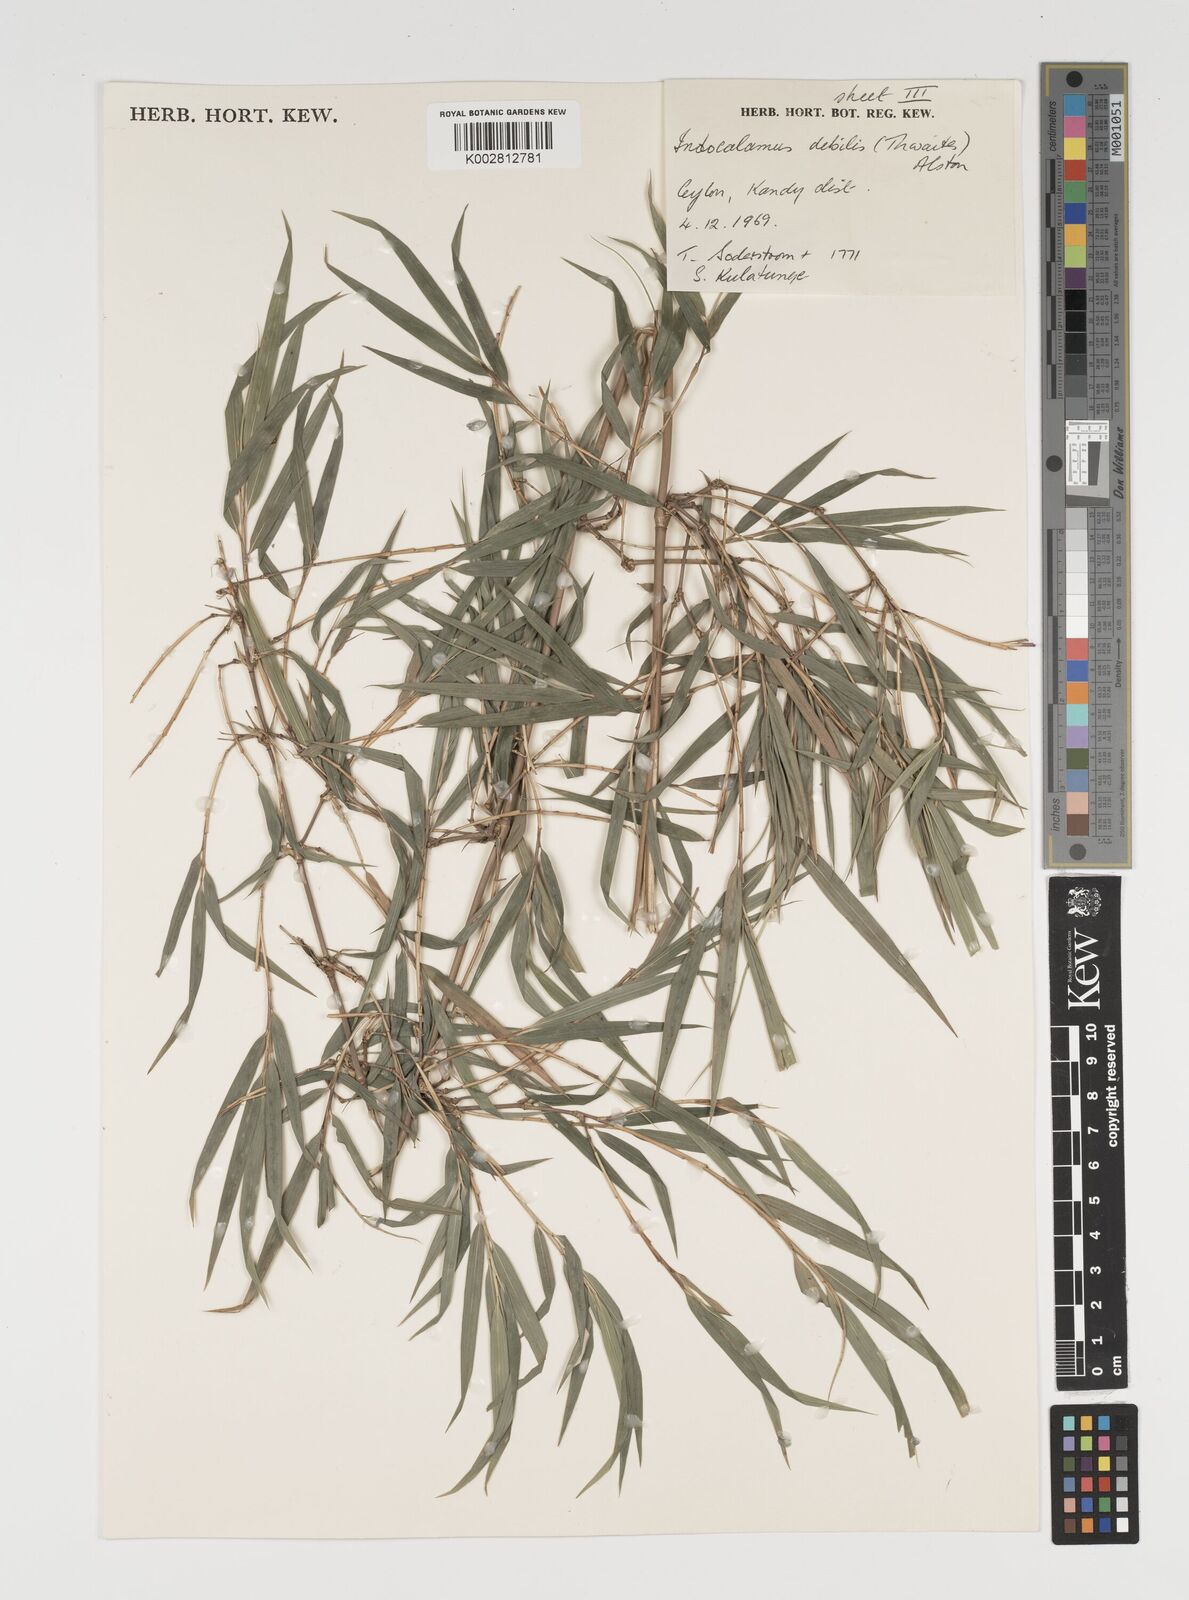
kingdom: Plantae
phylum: Tracheophyta
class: Liliopsida
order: Poales
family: Poaceae
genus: Kuruna
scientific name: Kuruna debilis
